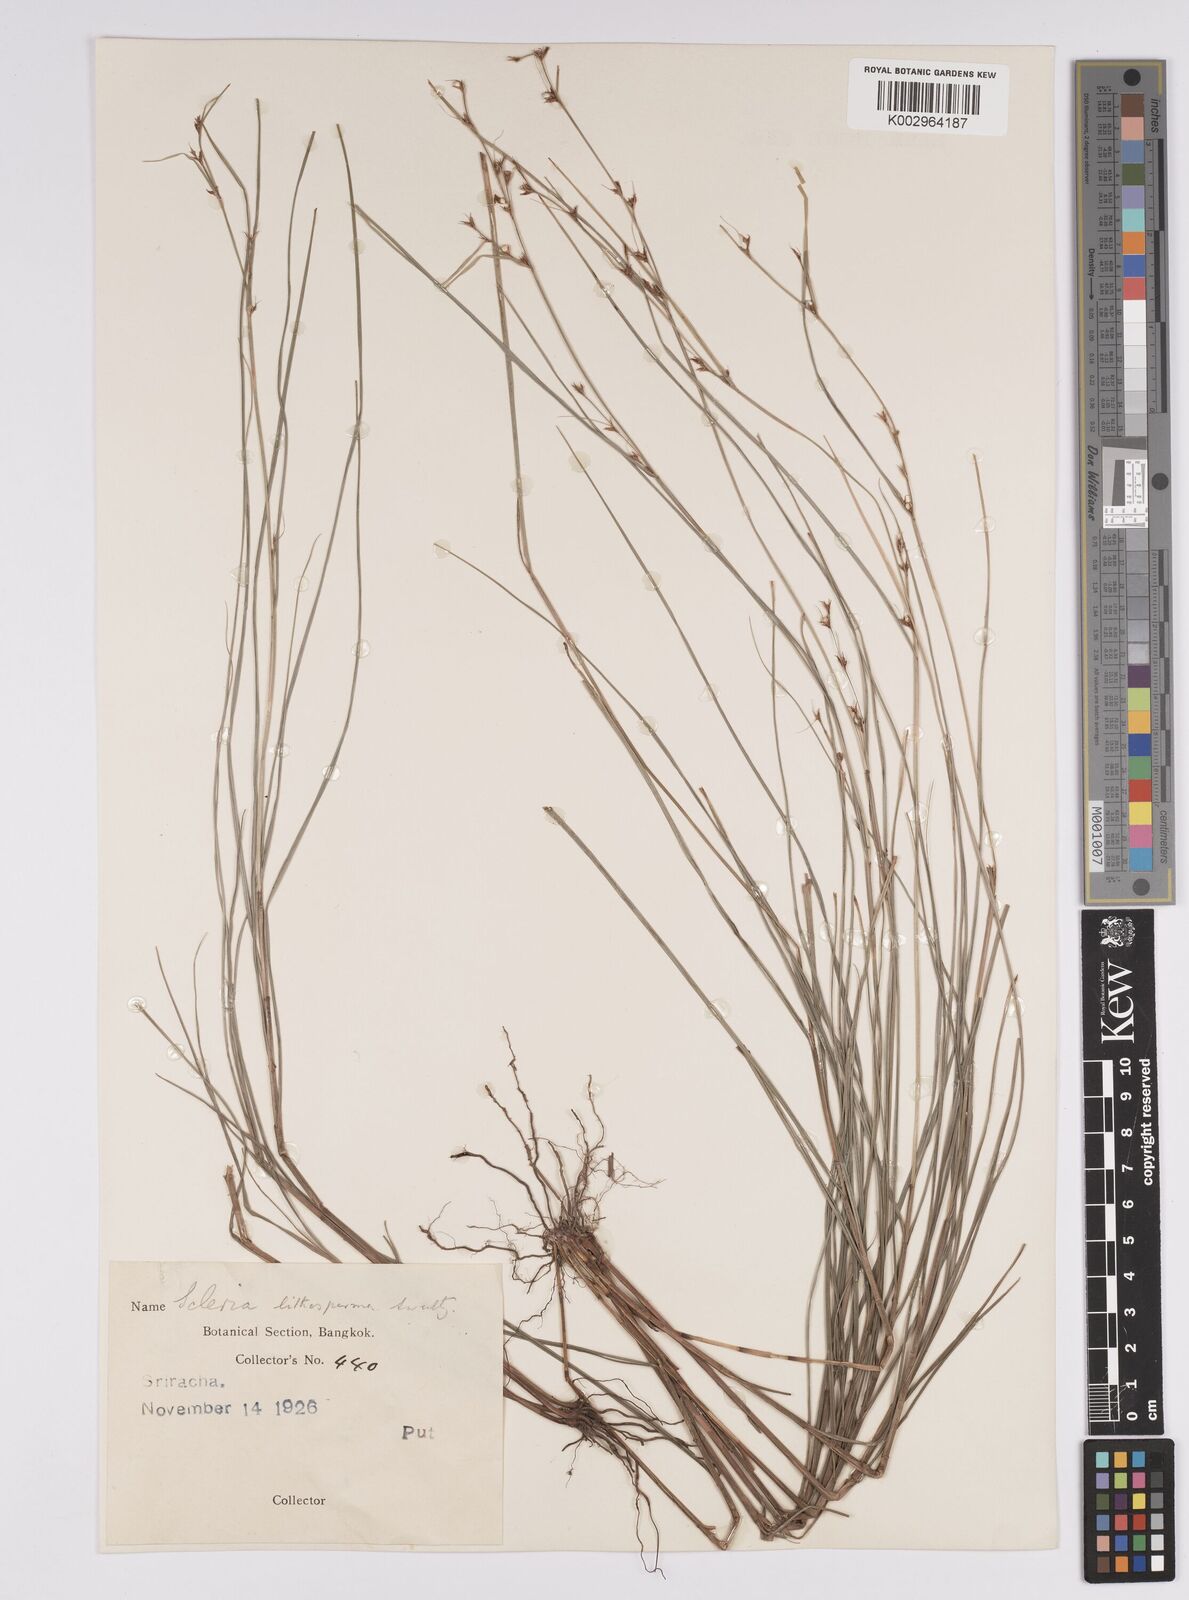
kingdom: Plantae
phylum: Tracheophyta
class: Liliopsida
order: Poales
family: Cyperaceae
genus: Scleria
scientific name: Scleria lithosperma
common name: Florida keys nut-rush
